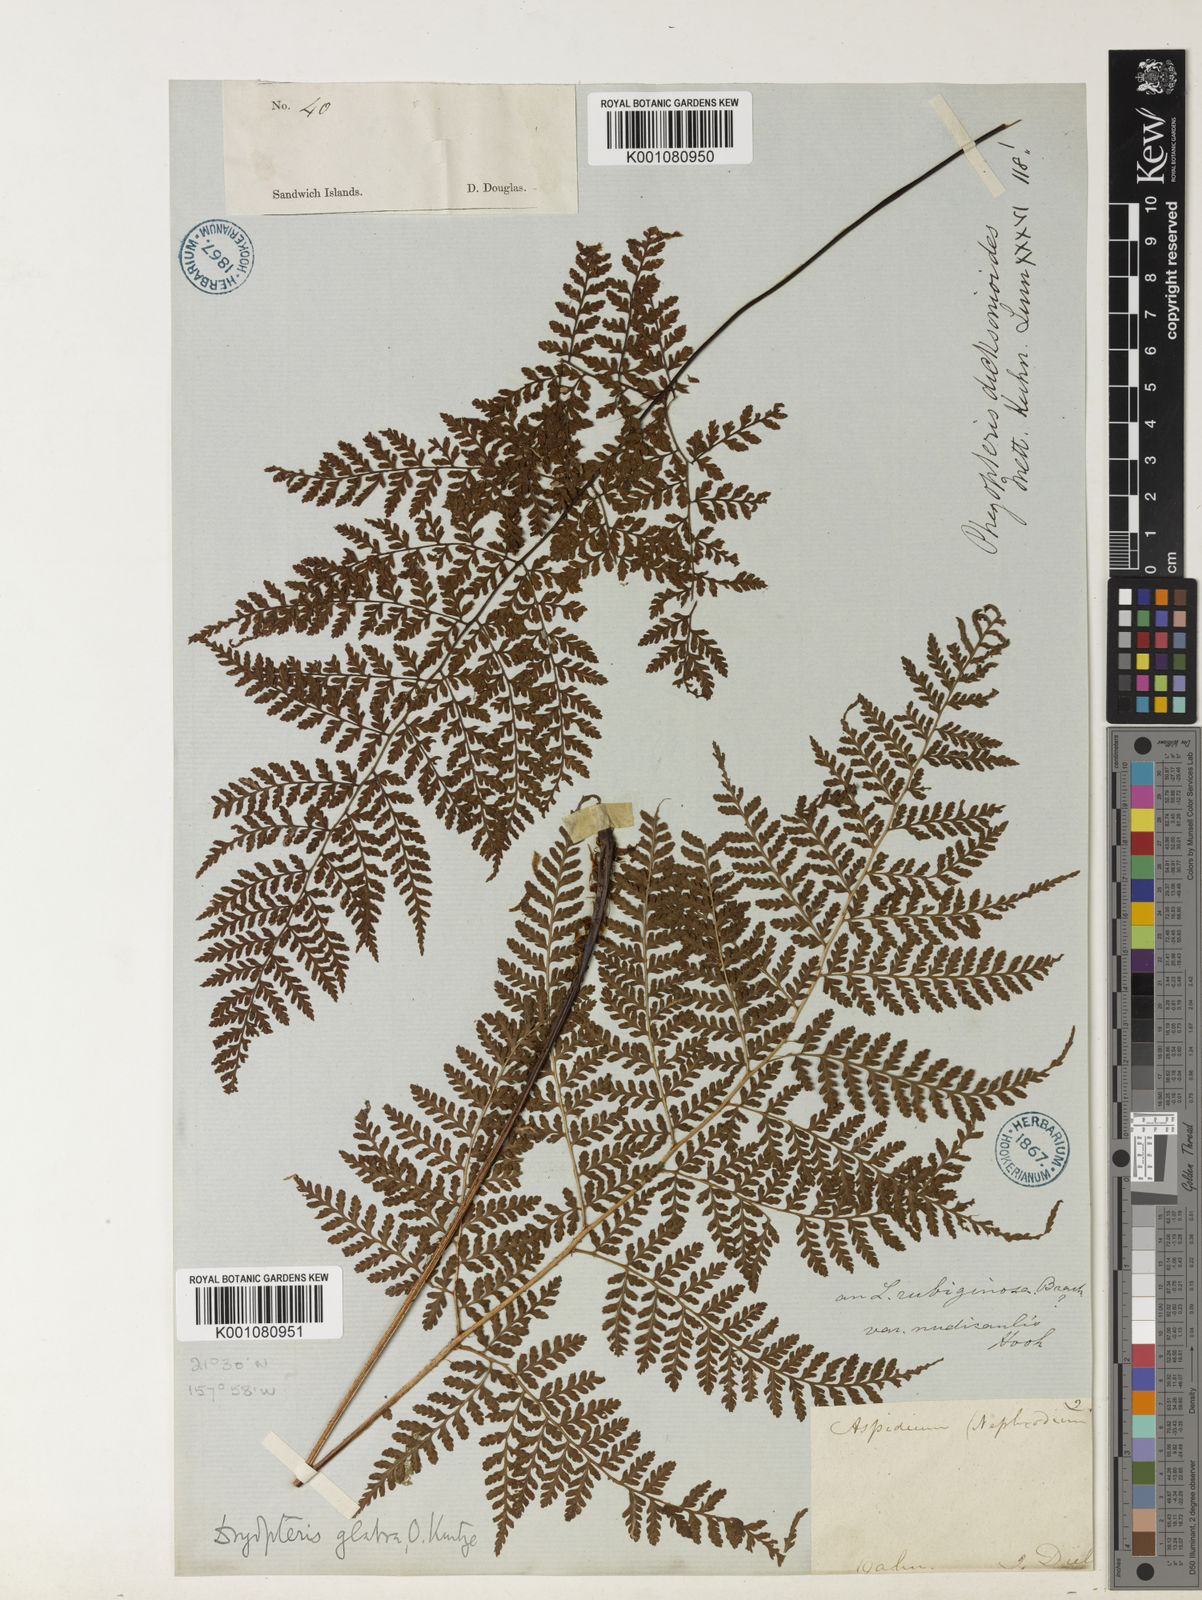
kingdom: Plantae
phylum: Tracheophyta
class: Polypodiopsida
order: Polypodiales
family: Dryopteridaceae
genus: Dryopteris
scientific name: Dryopteris glabra
